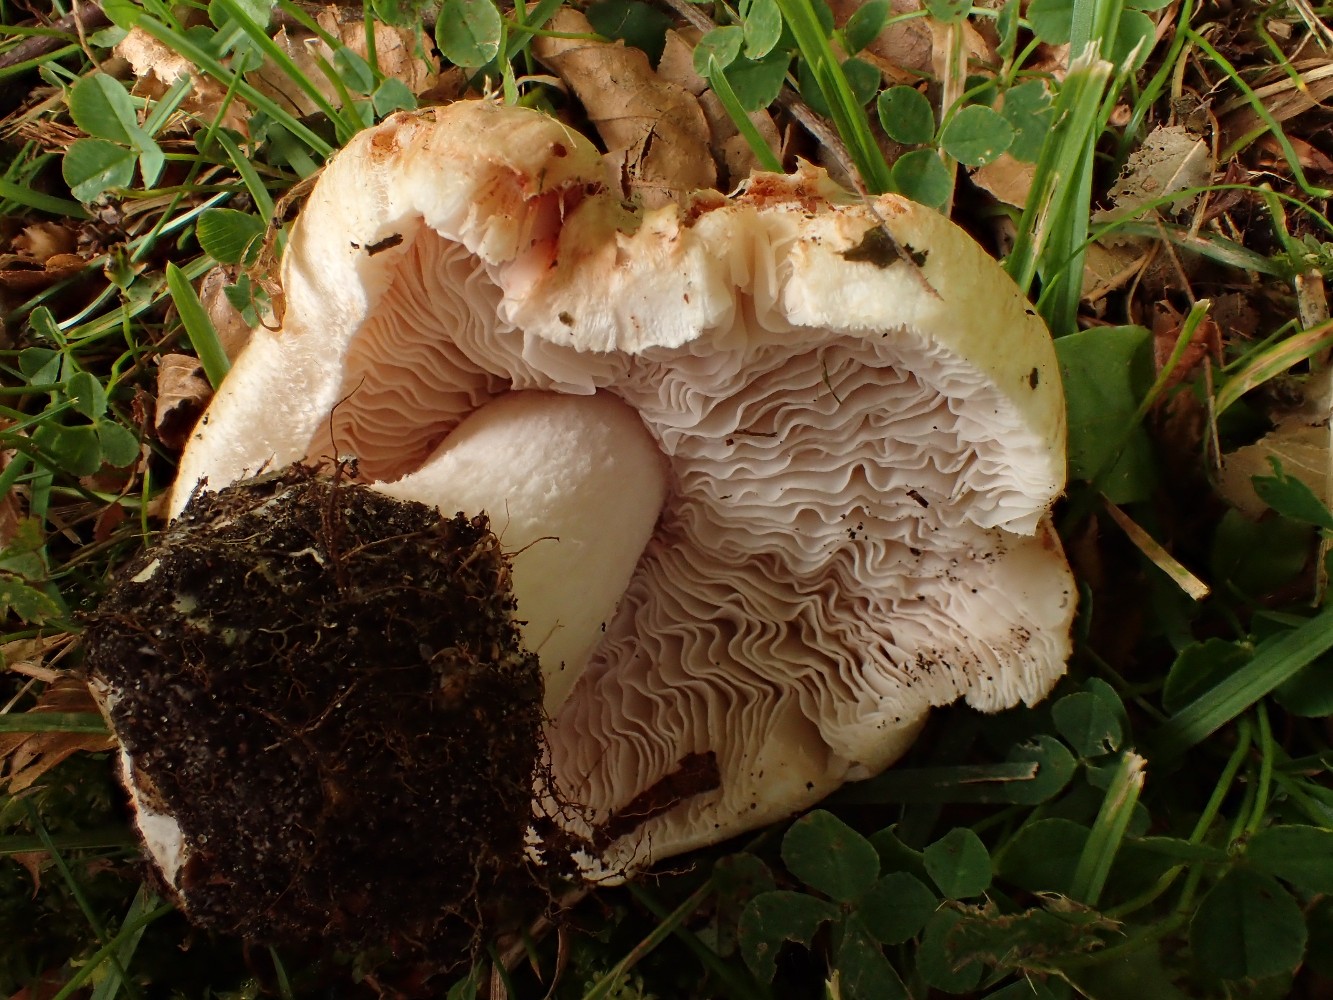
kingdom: Fungi
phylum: Basidiomycota
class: Agaricomycetes
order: Agaricales
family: Inocybaceae
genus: Inosperma
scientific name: Inosperma erubescens
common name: giftig trævlhat
